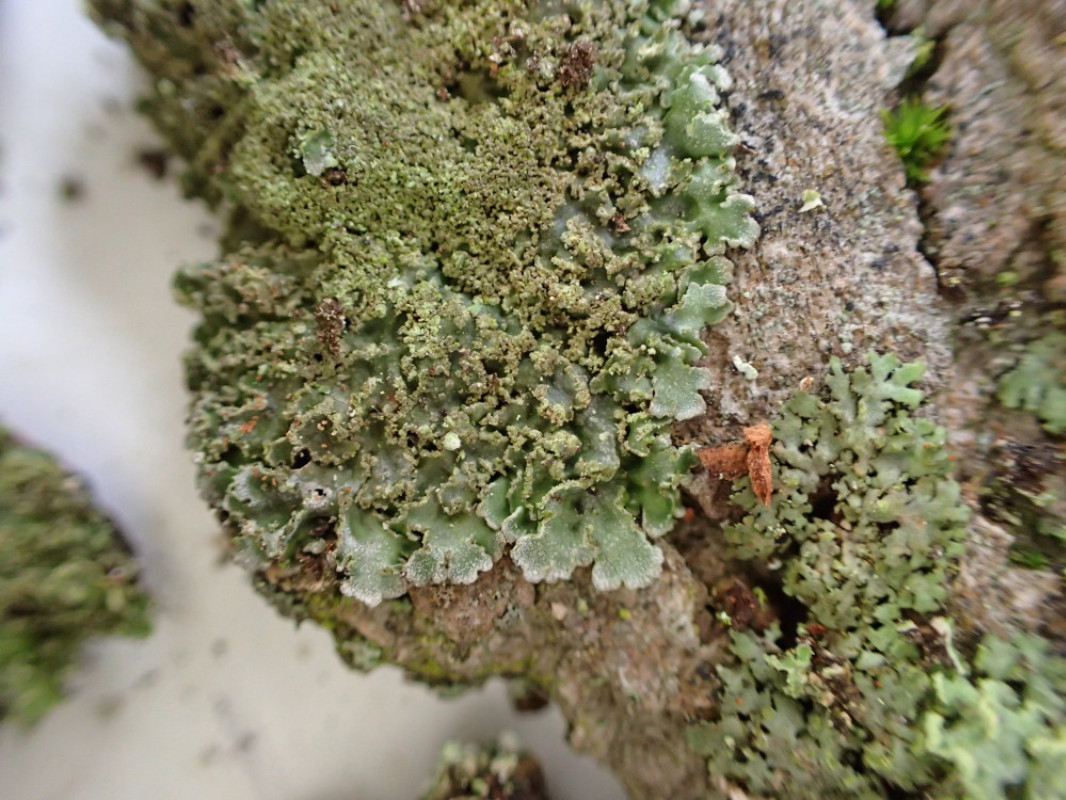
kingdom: Fungi
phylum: Ascomycota
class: Lecanoromycetes
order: Caliciales
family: Physciaceae
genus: Physconia
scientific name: Physconia perisidiosa
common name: liden dugrosetlav
